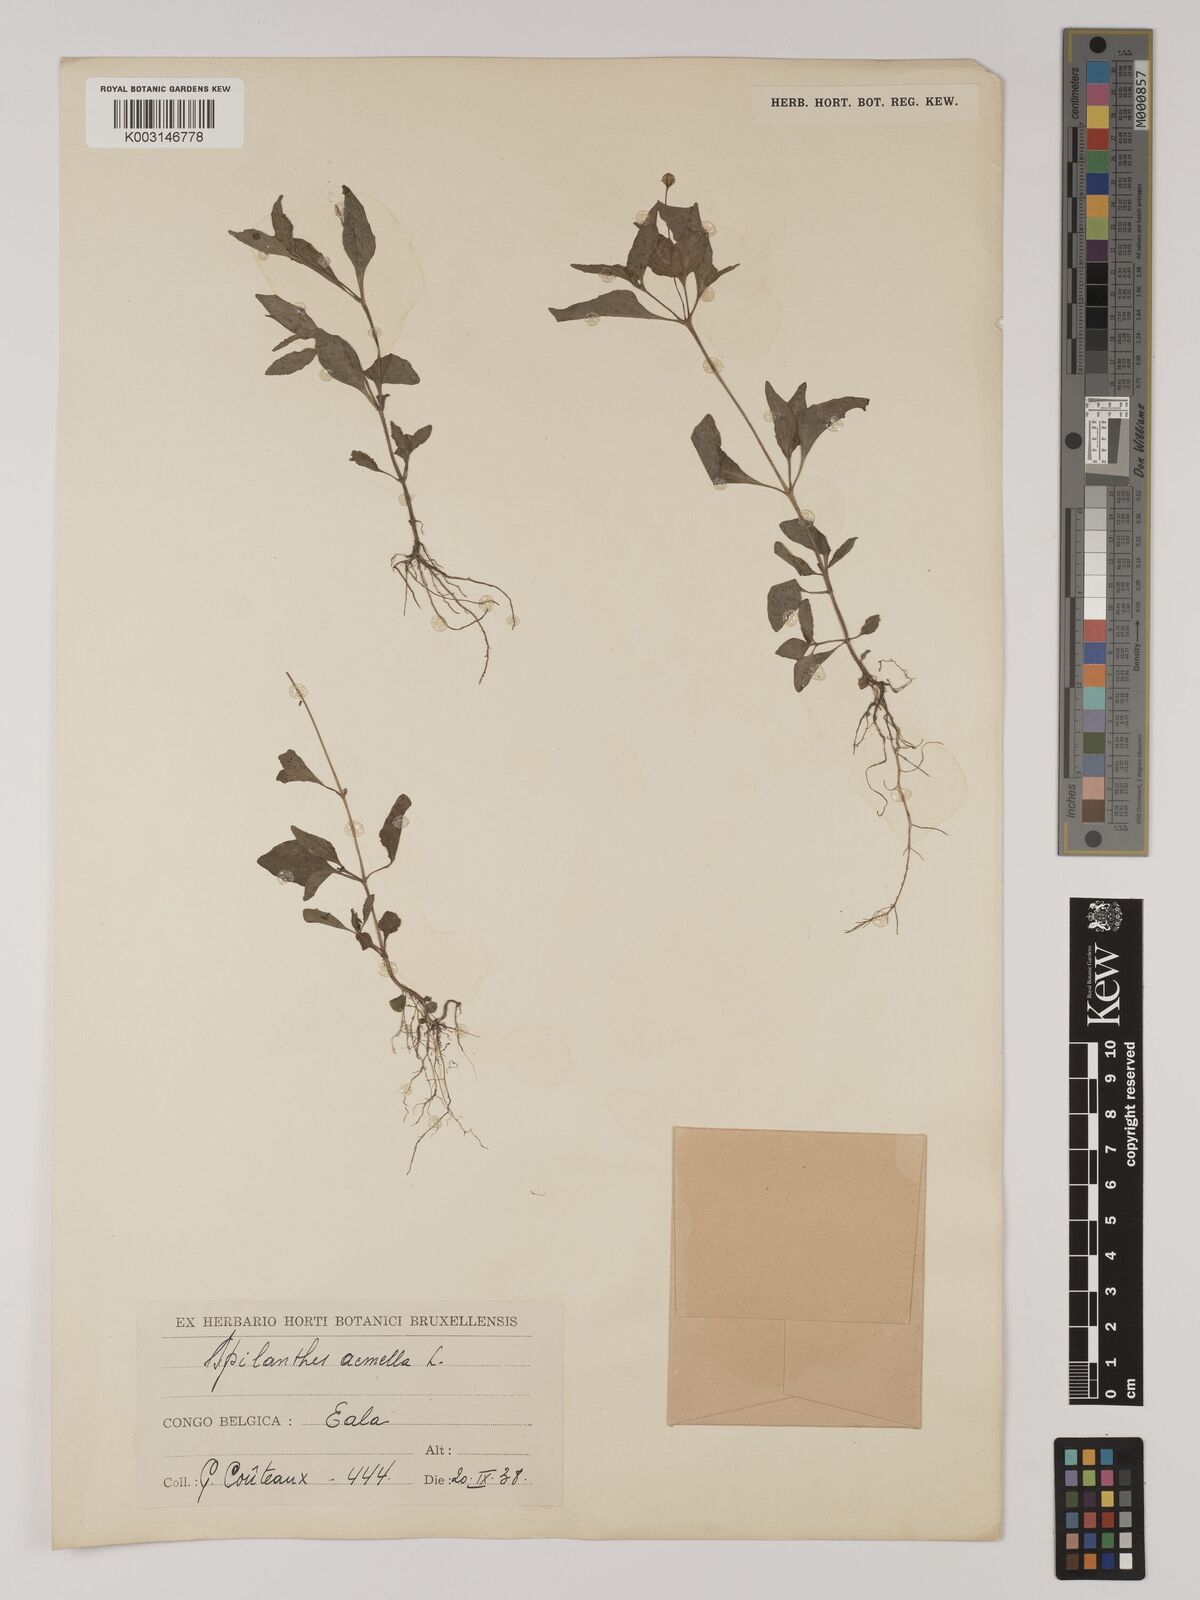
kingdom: Plantae
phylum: Tracheophyta
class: Magnoliopsida
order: Asterales
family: Asteraceae
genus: Acmella
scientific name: Acmella uliginosa
